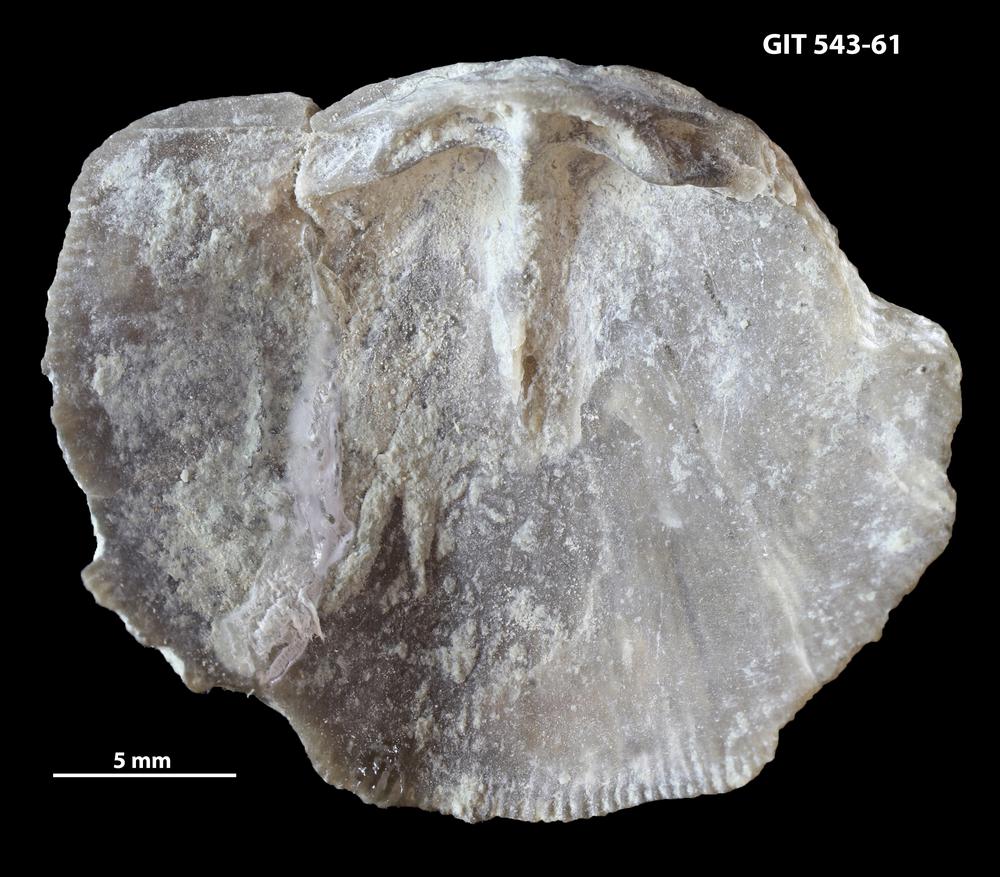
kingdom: Animalia
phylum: Brachiopoda
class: Rhynchonellata
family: Clitambonitidae
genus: Ilmarinia
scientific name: Ilmarinia
